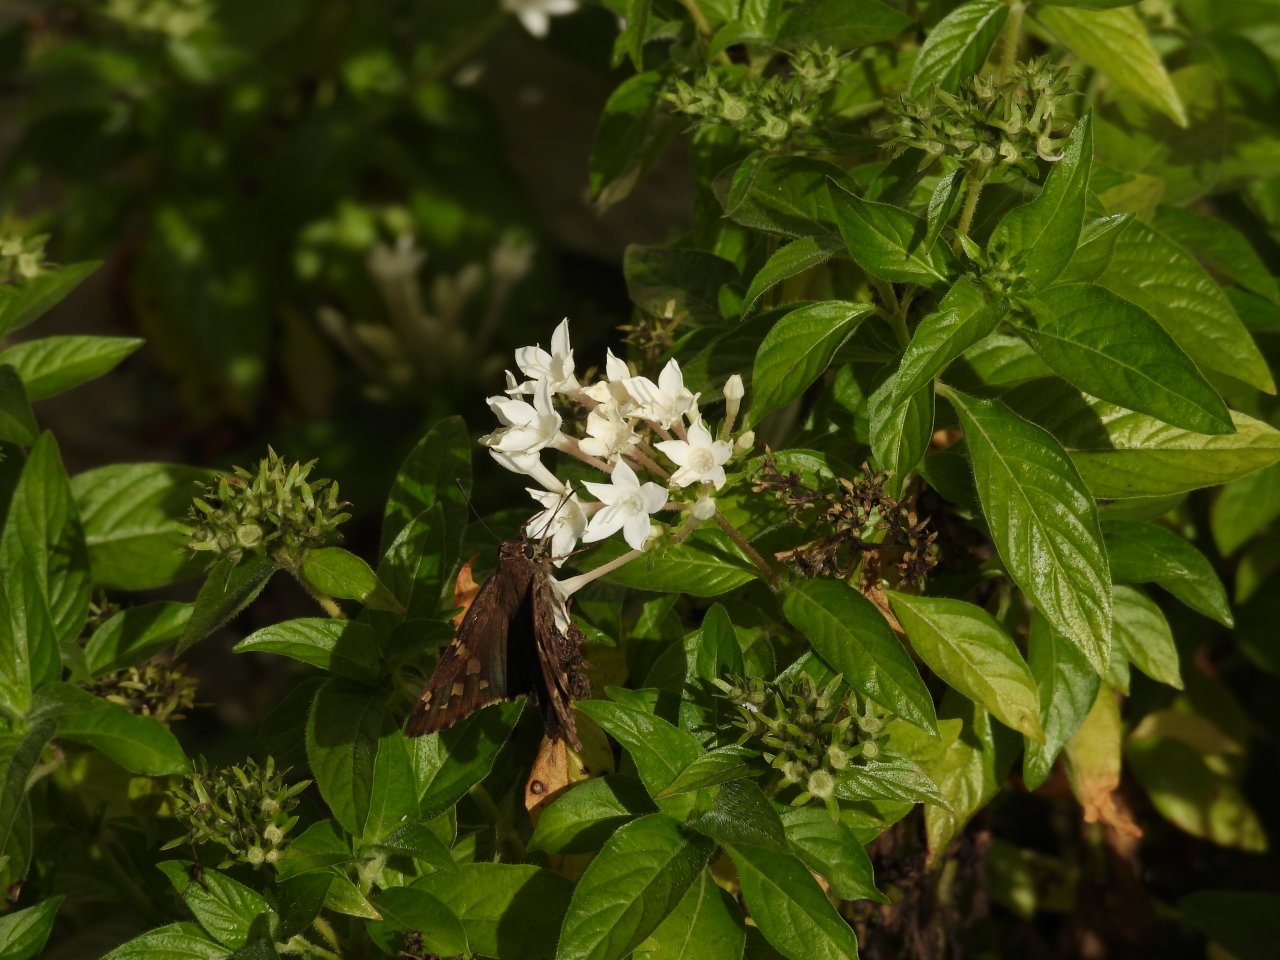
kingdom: Animalia
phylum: Arthropoda
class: Insecta
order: Lepidoptera
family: Hesperiidae
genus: Urbanus
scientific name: Urbanus dorantes
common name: Dorantes Longtail
